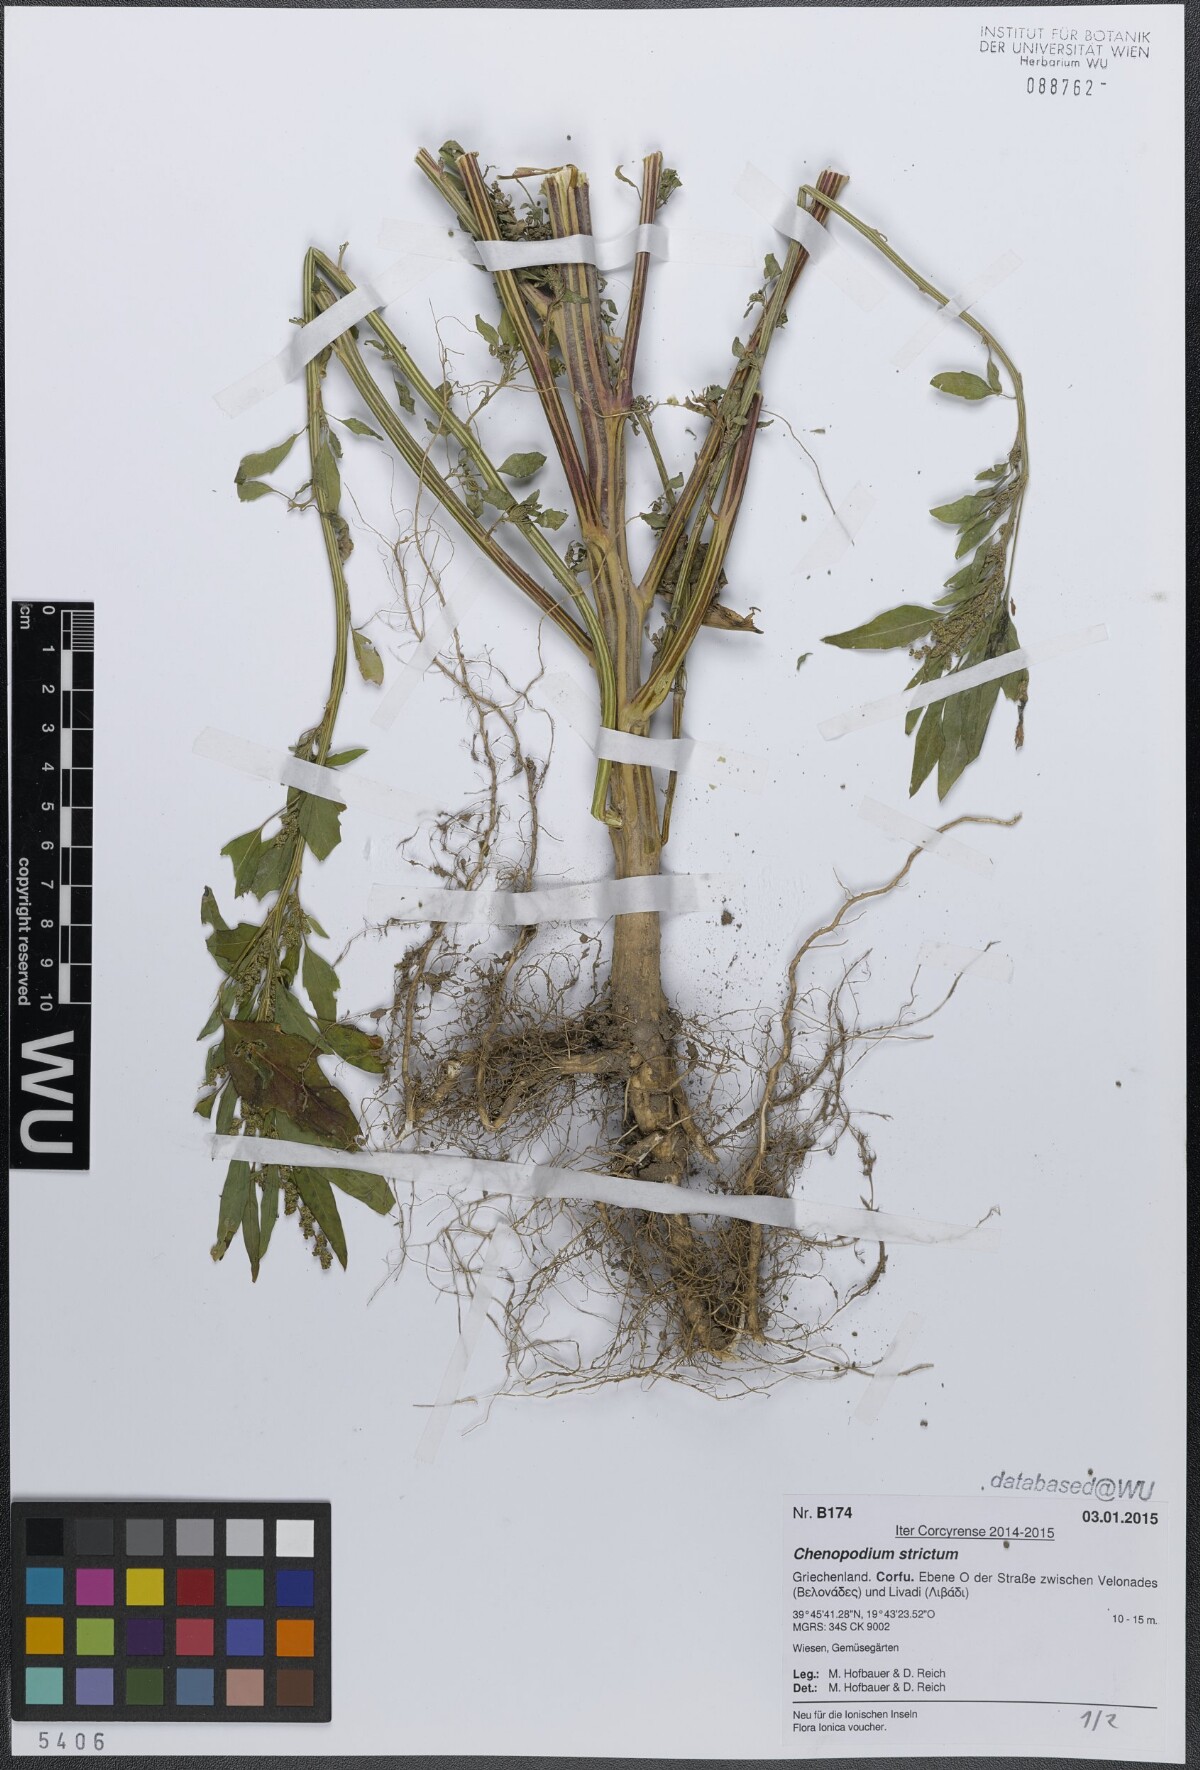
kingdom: Plantae
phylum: Tracheophyta
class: Magnoliopsida
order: Caryophyllales
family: Amaranthaceae
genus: Chenopodium
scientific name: Chenopodium album
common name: Fat-hen
